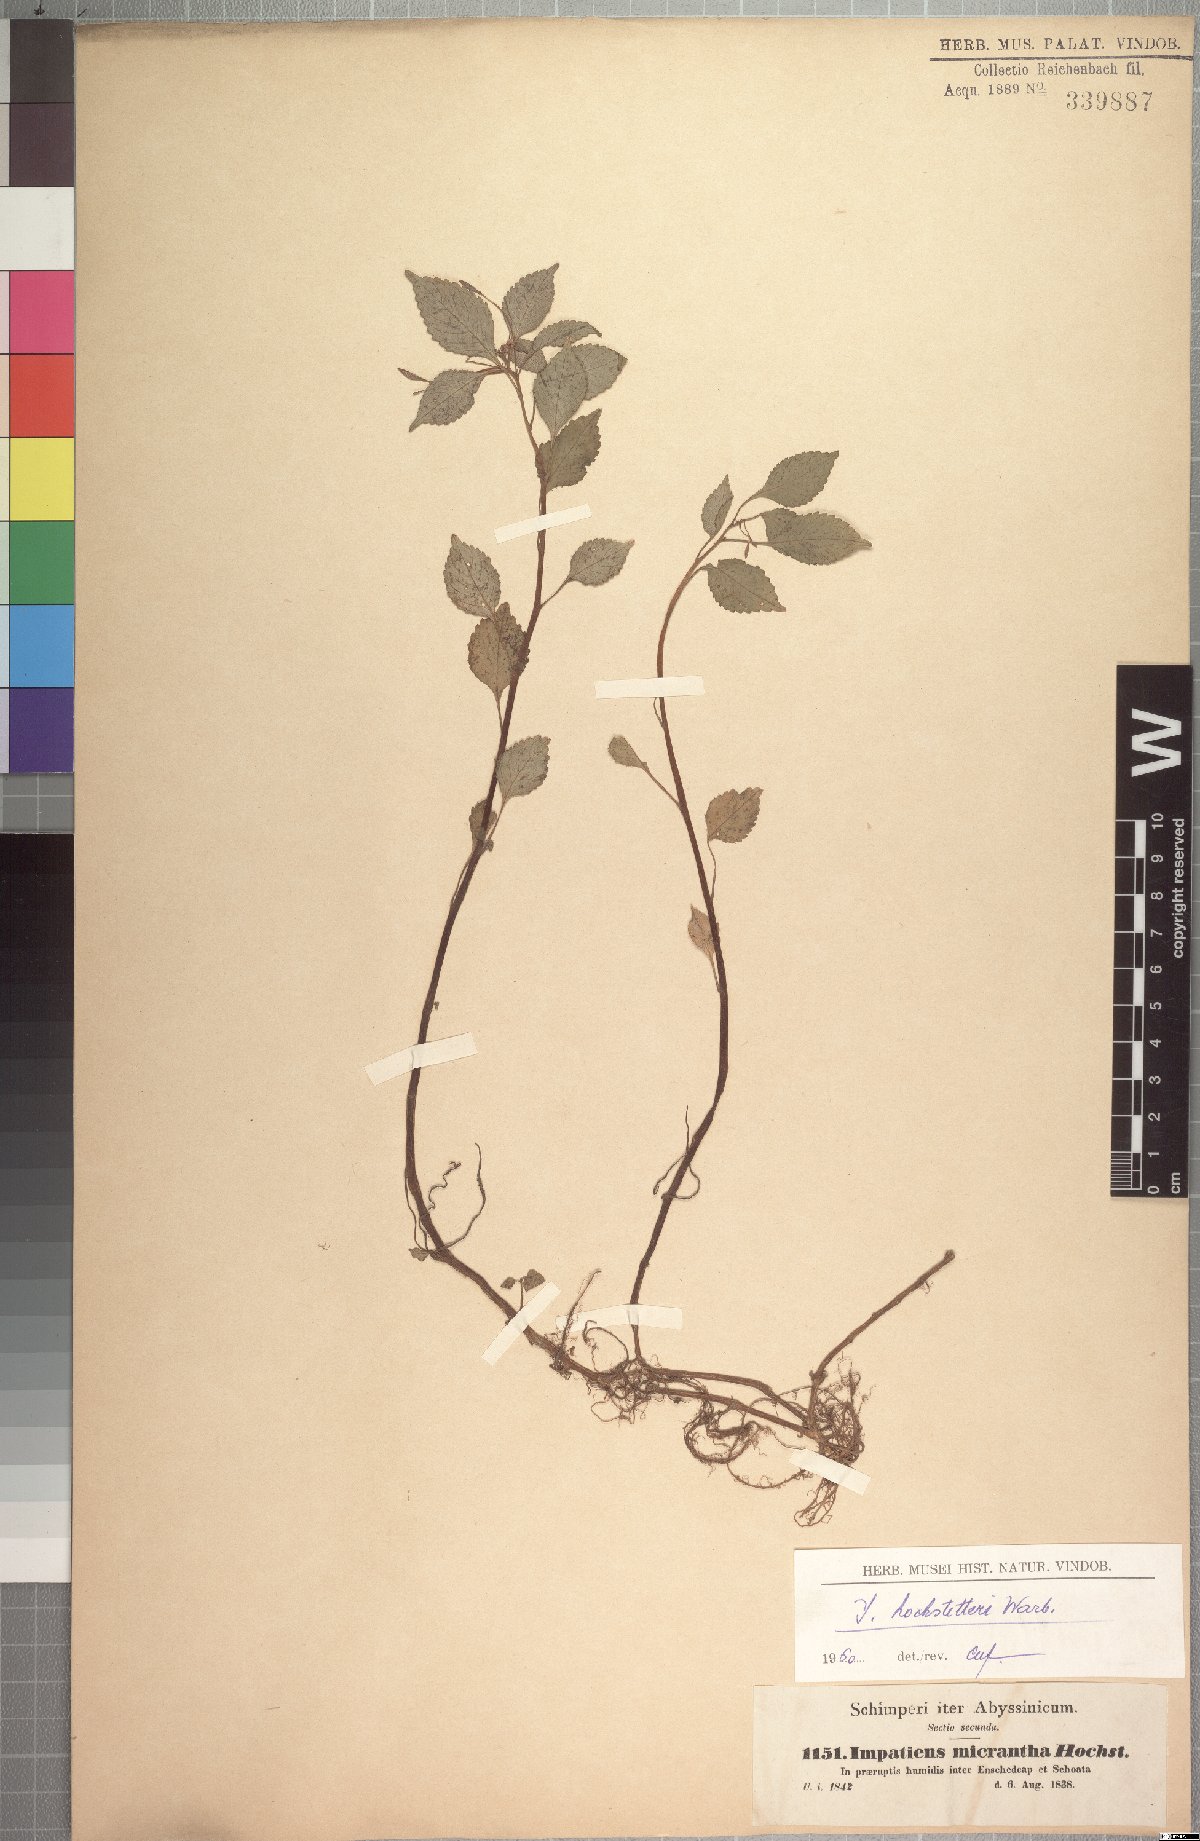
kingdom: Plantae
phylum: Tracheophyta
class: Magnoliopsida
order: Ericales
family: Balsaminaceae
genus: Impatiens
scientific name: Impatiens hochstetteri
